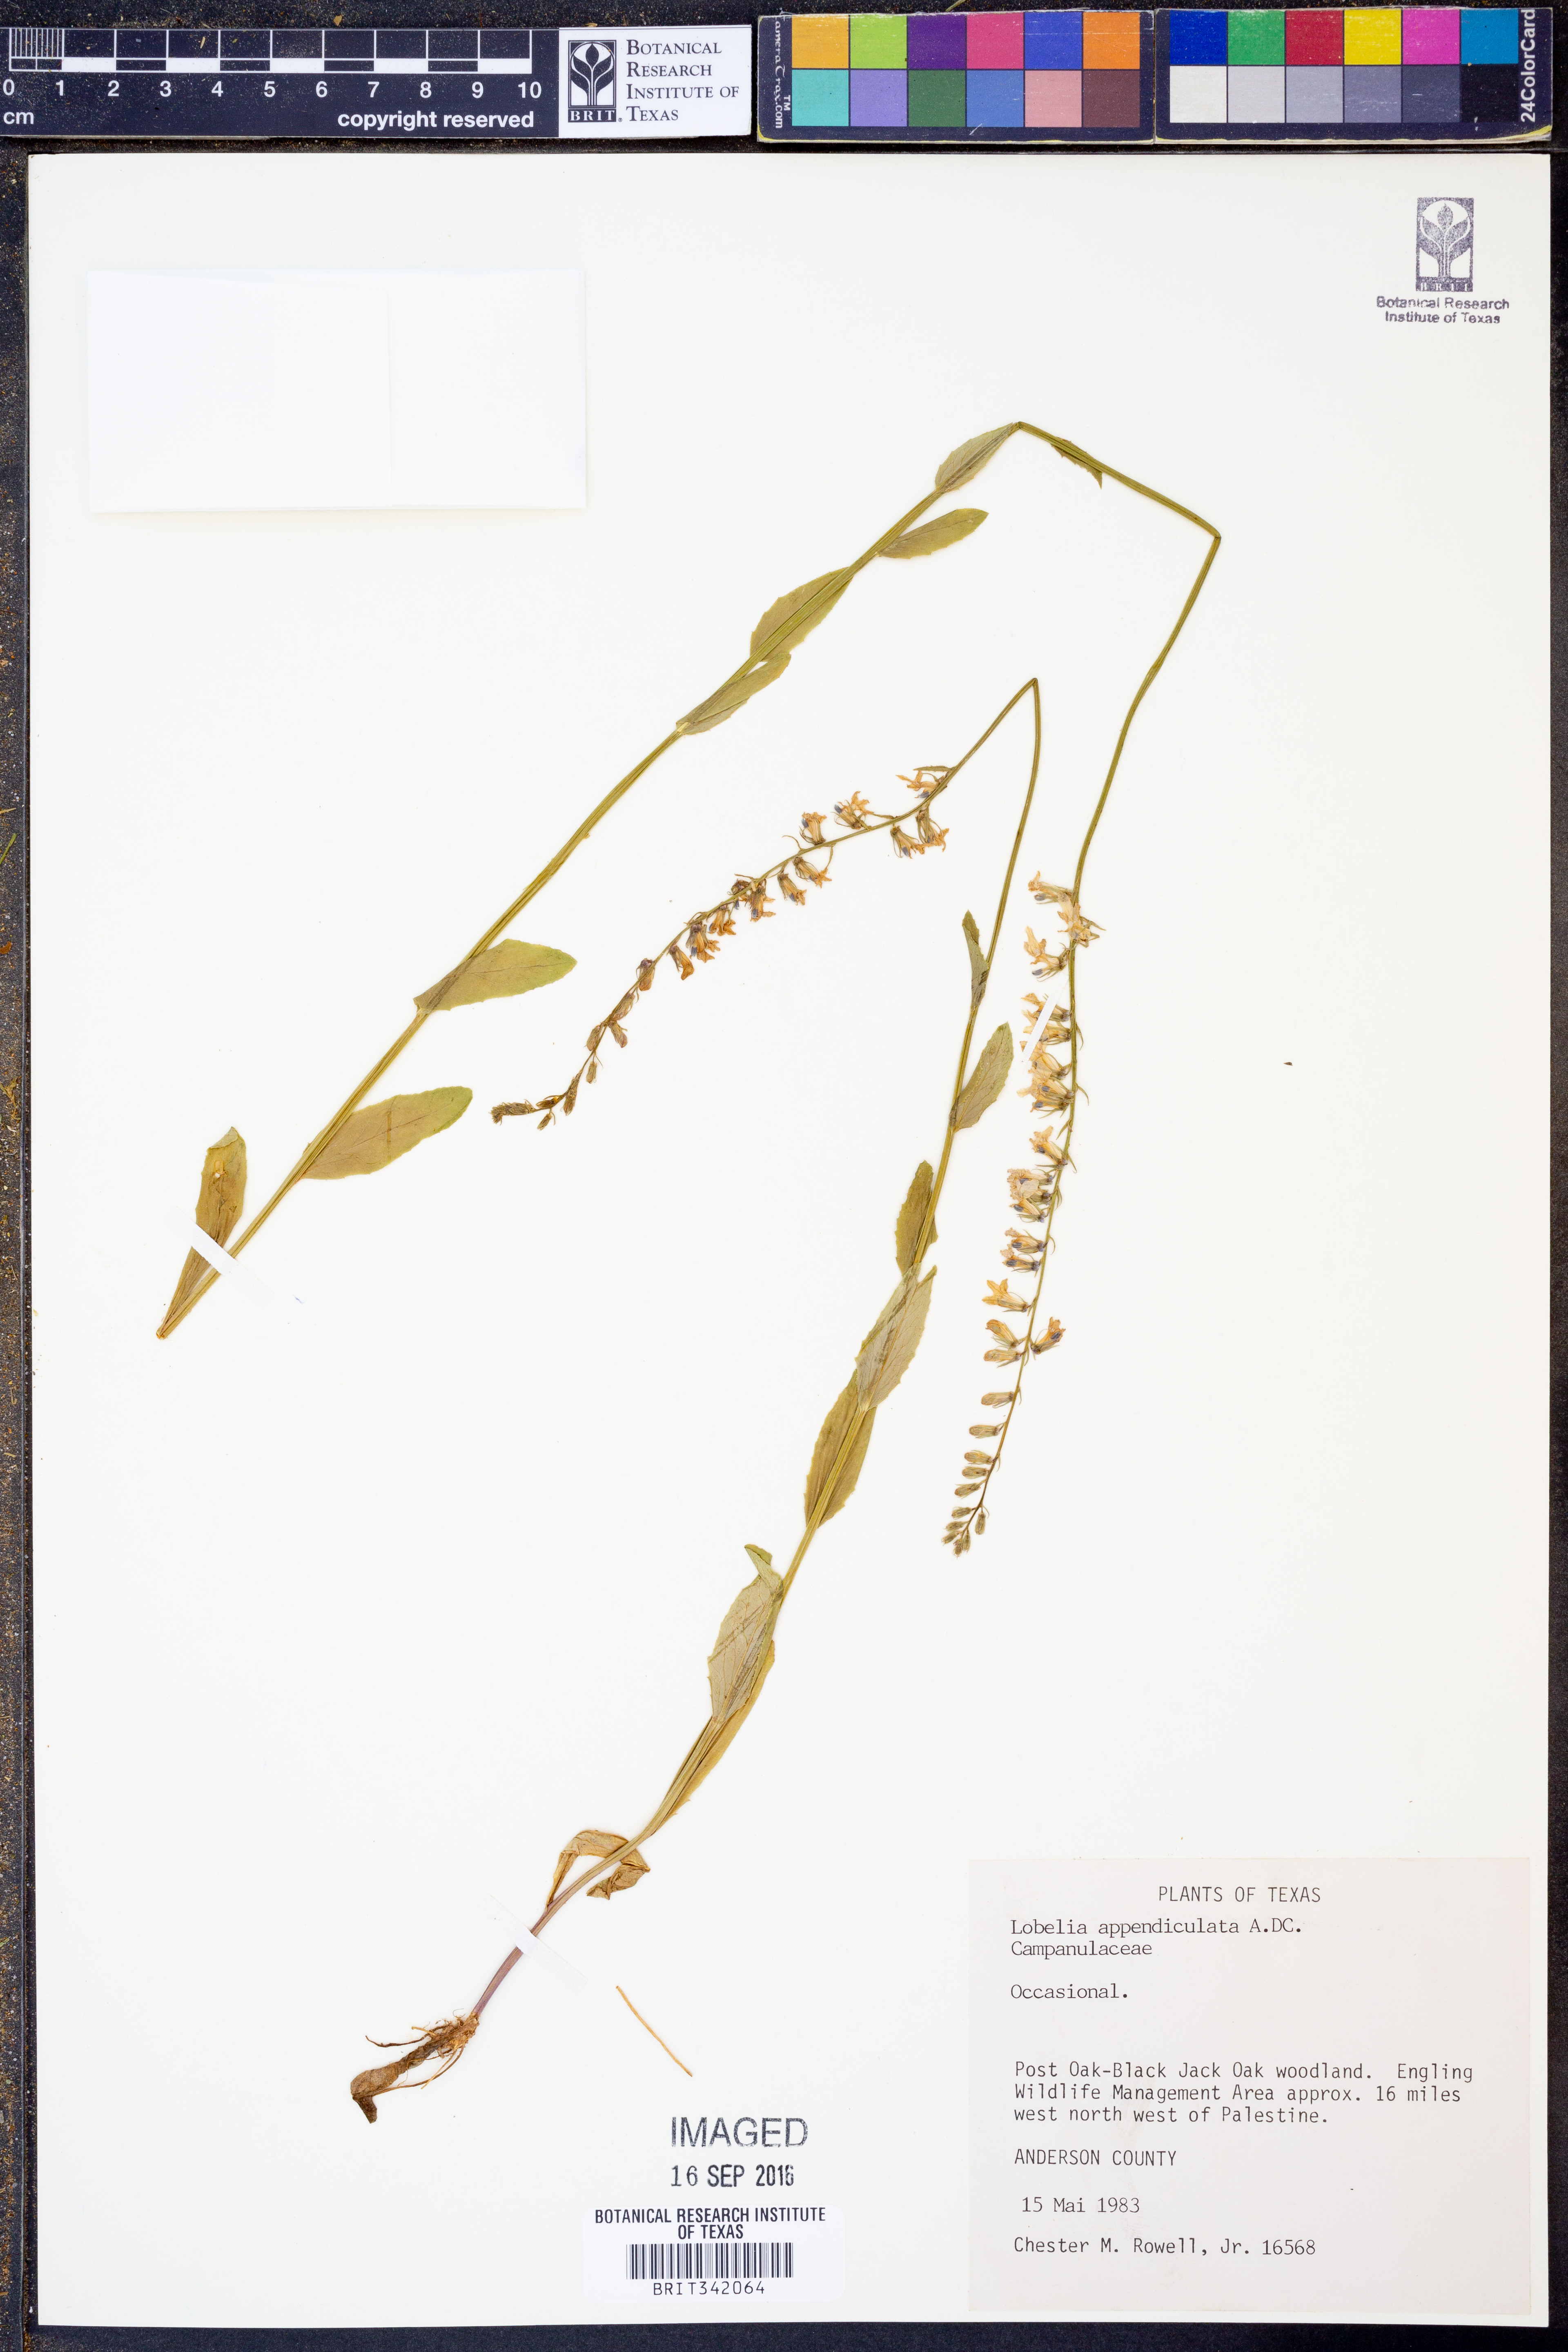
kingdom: Plantae
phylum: Tracheophyta
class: Magnoliopsida
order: Asterales
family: Campanulaceae
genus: Lobelia
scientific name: Lobelia appendiculata
